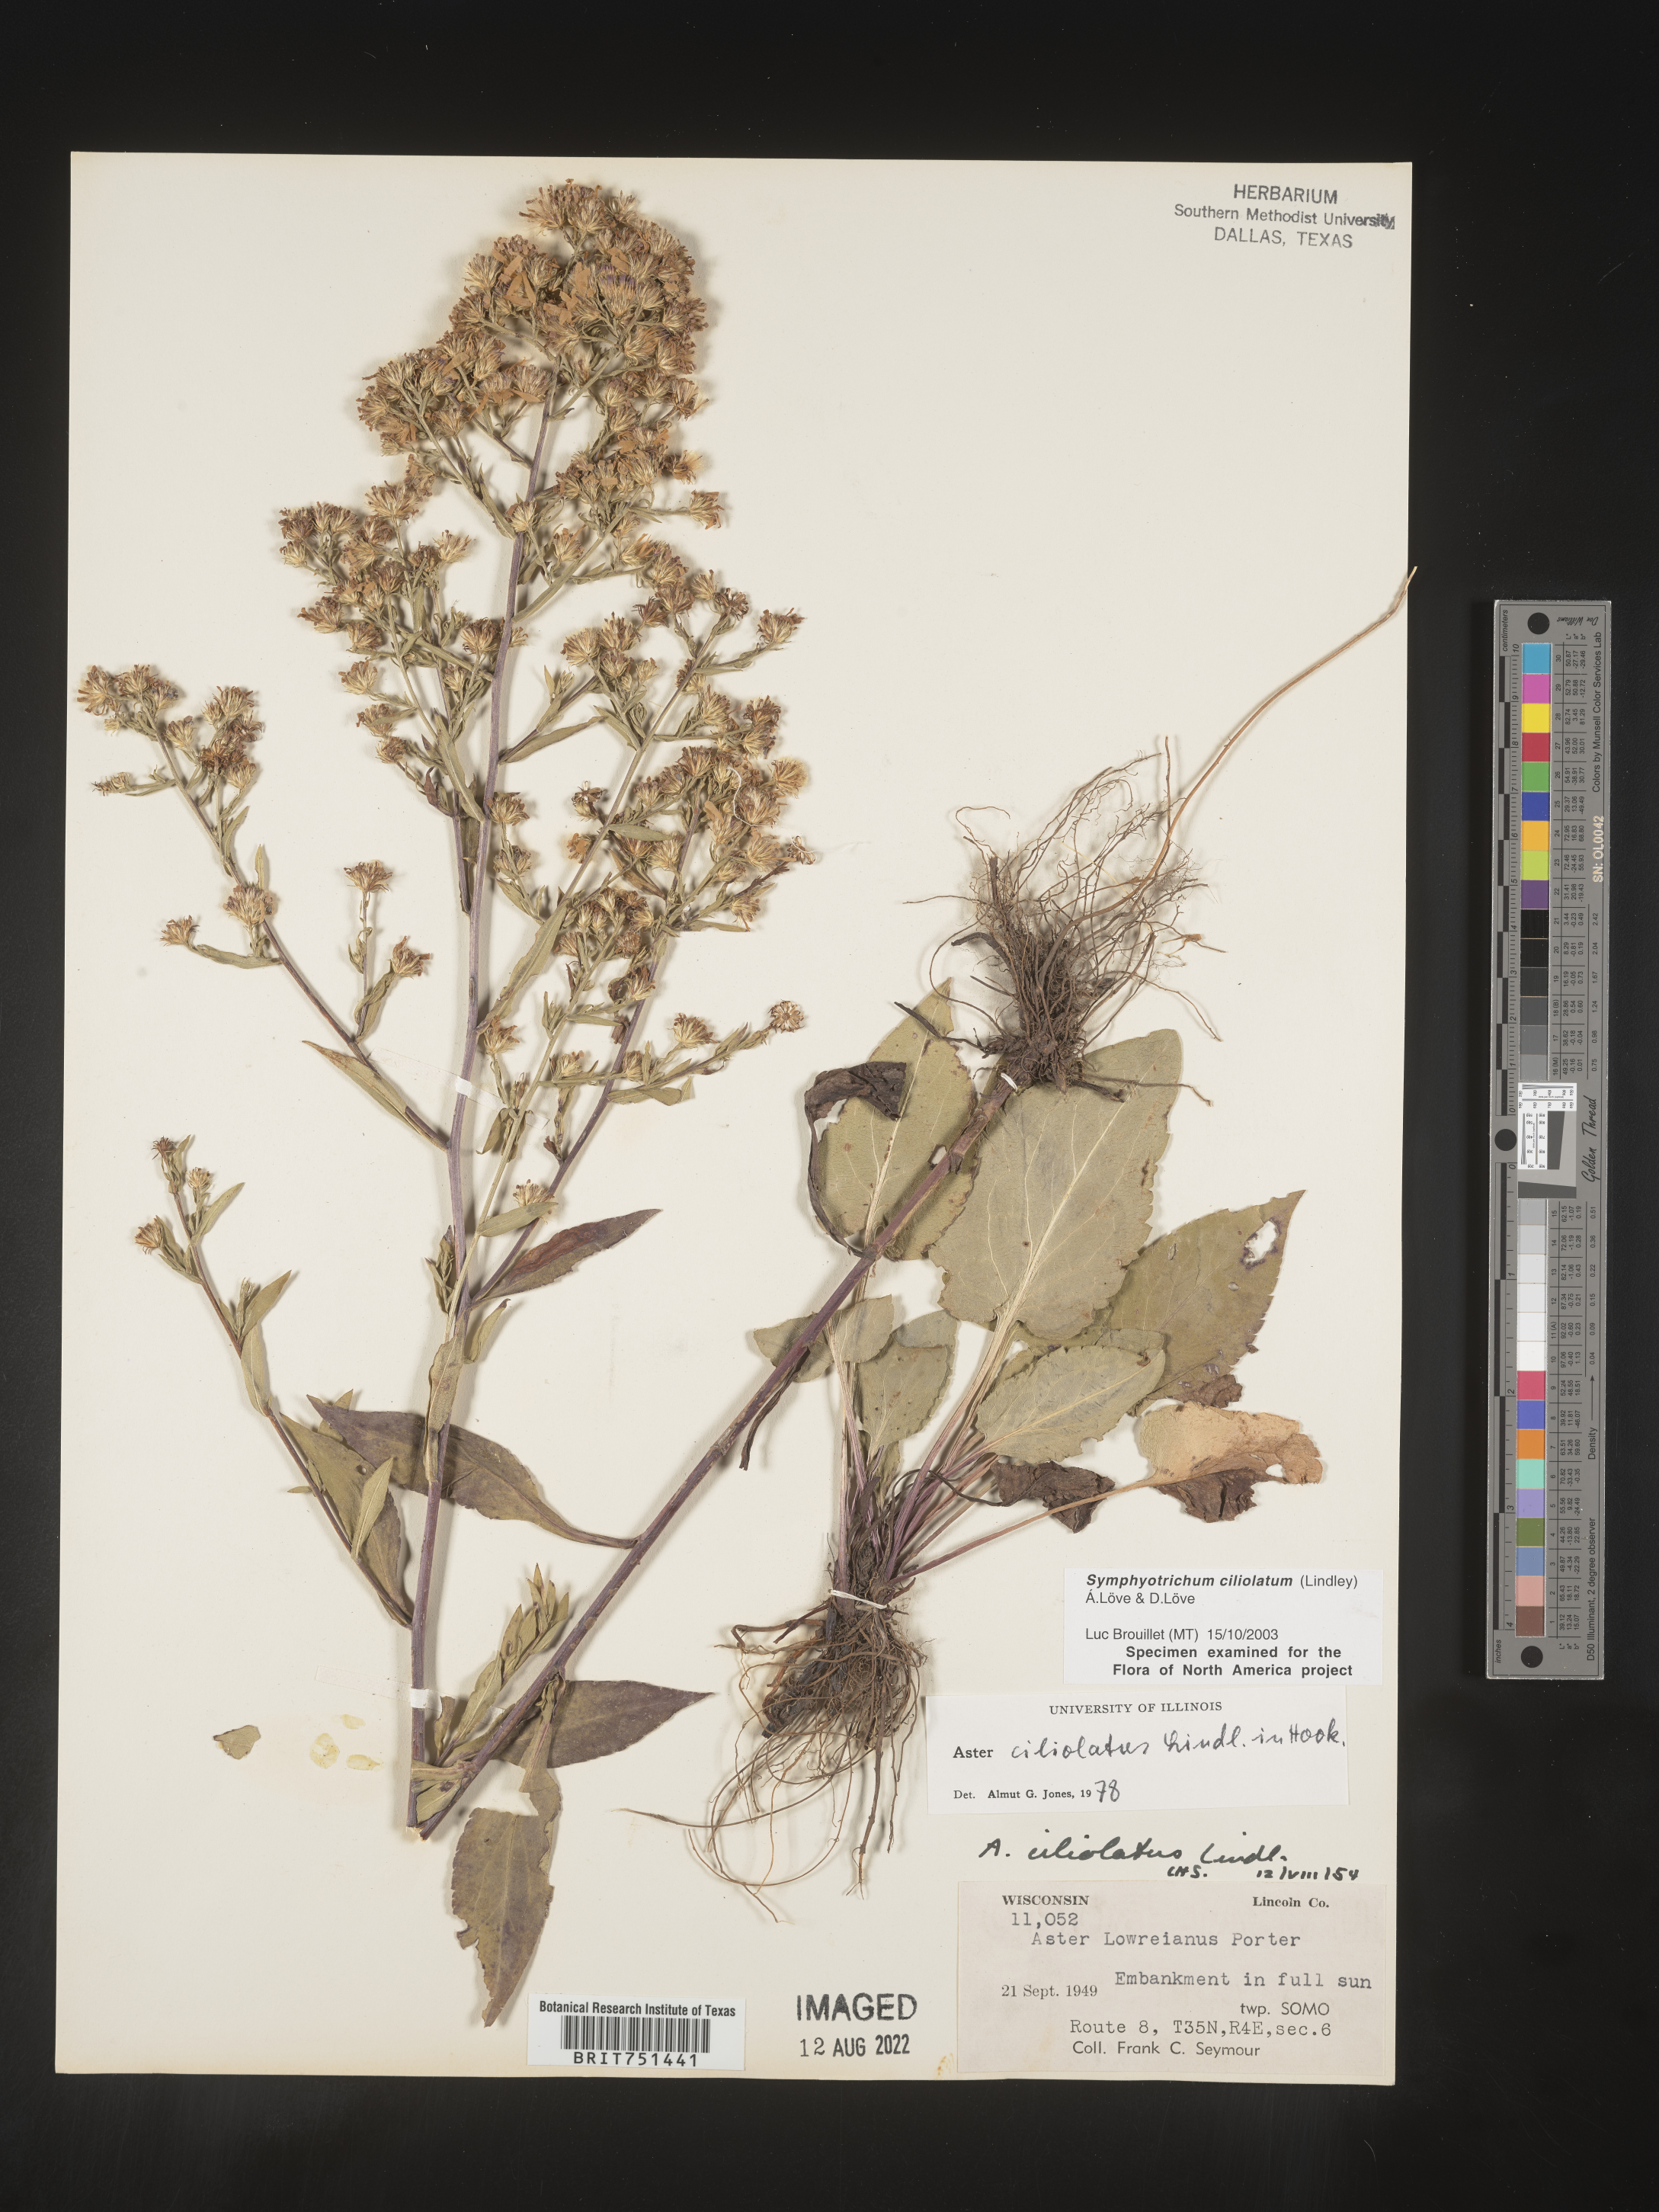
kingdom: Plantae
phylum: Tracheophyta
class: Magnoliopsida
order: Asterales
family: Asteraceae
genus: Symphyotrichum
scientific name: Symphyotrichum ciliolatum
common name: Fringed blue aster
